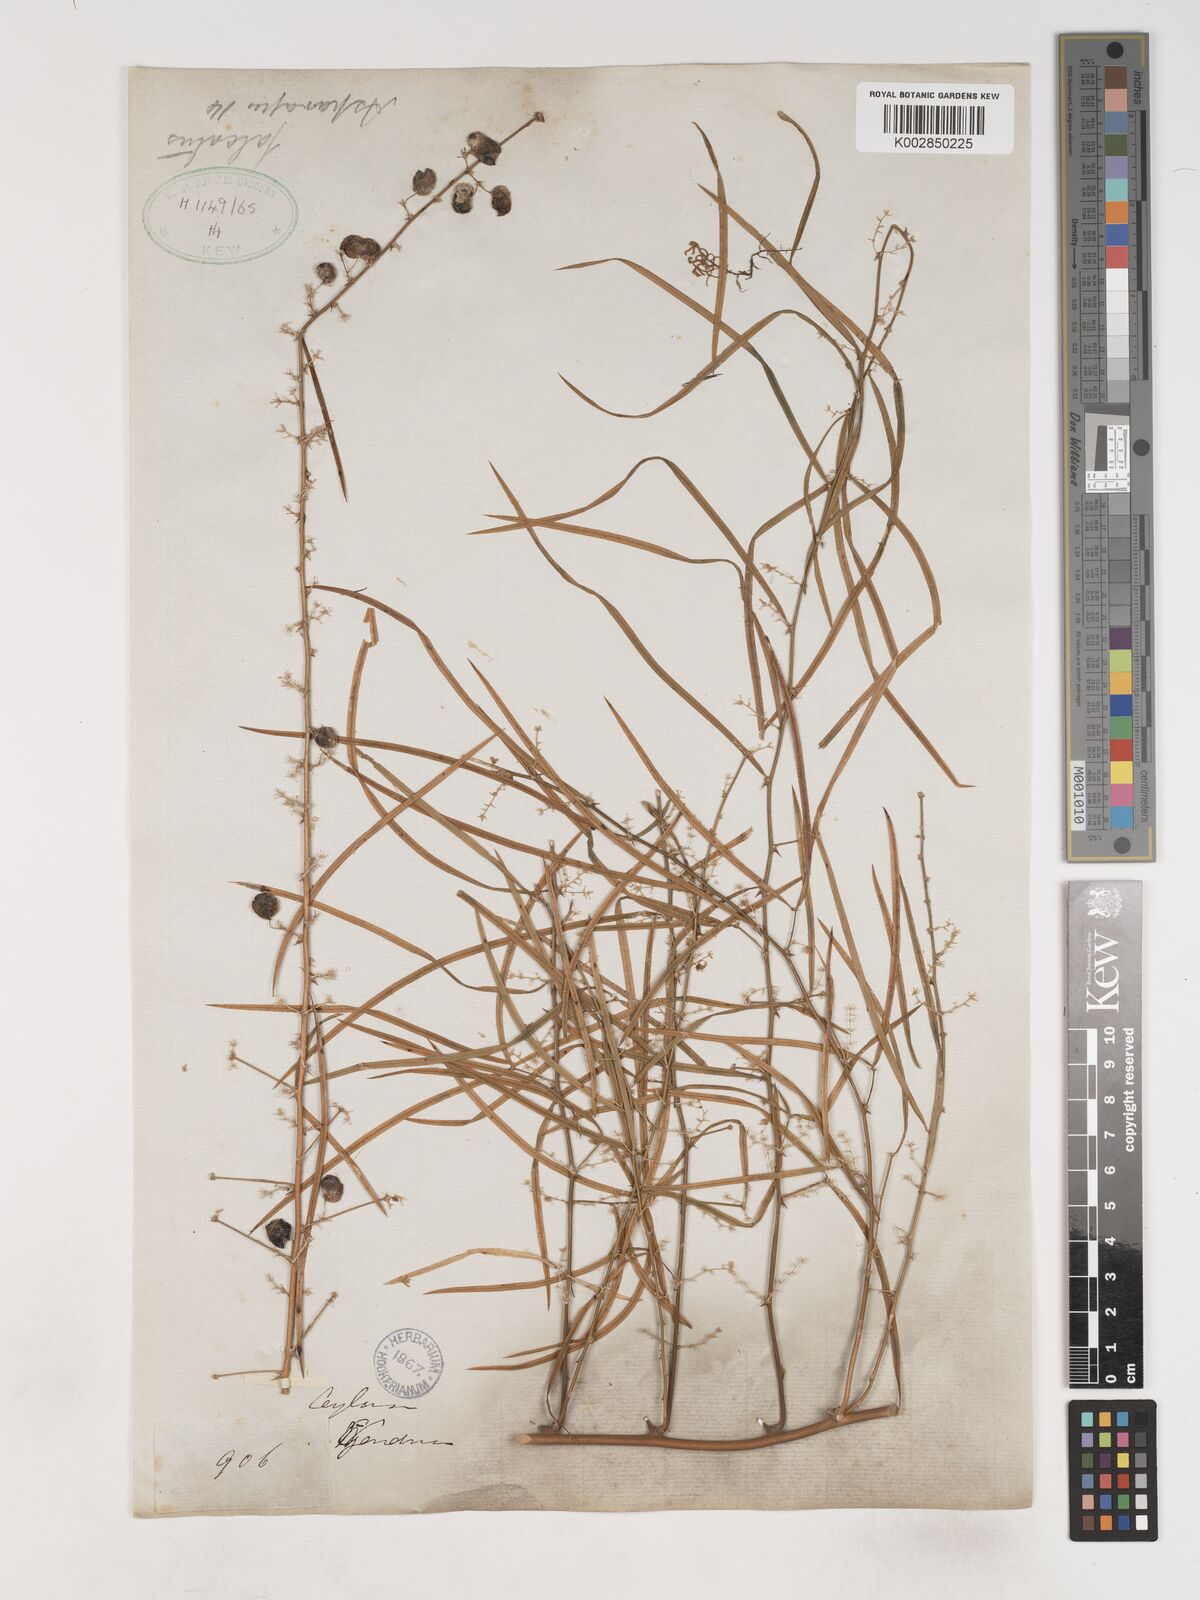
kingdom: Plantae
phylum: Tracheophyta
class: Liliopsida
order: Asparagales
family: Asparagaceae
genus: Asparagus
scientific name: Asparagus falcatus
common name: Asparagus
